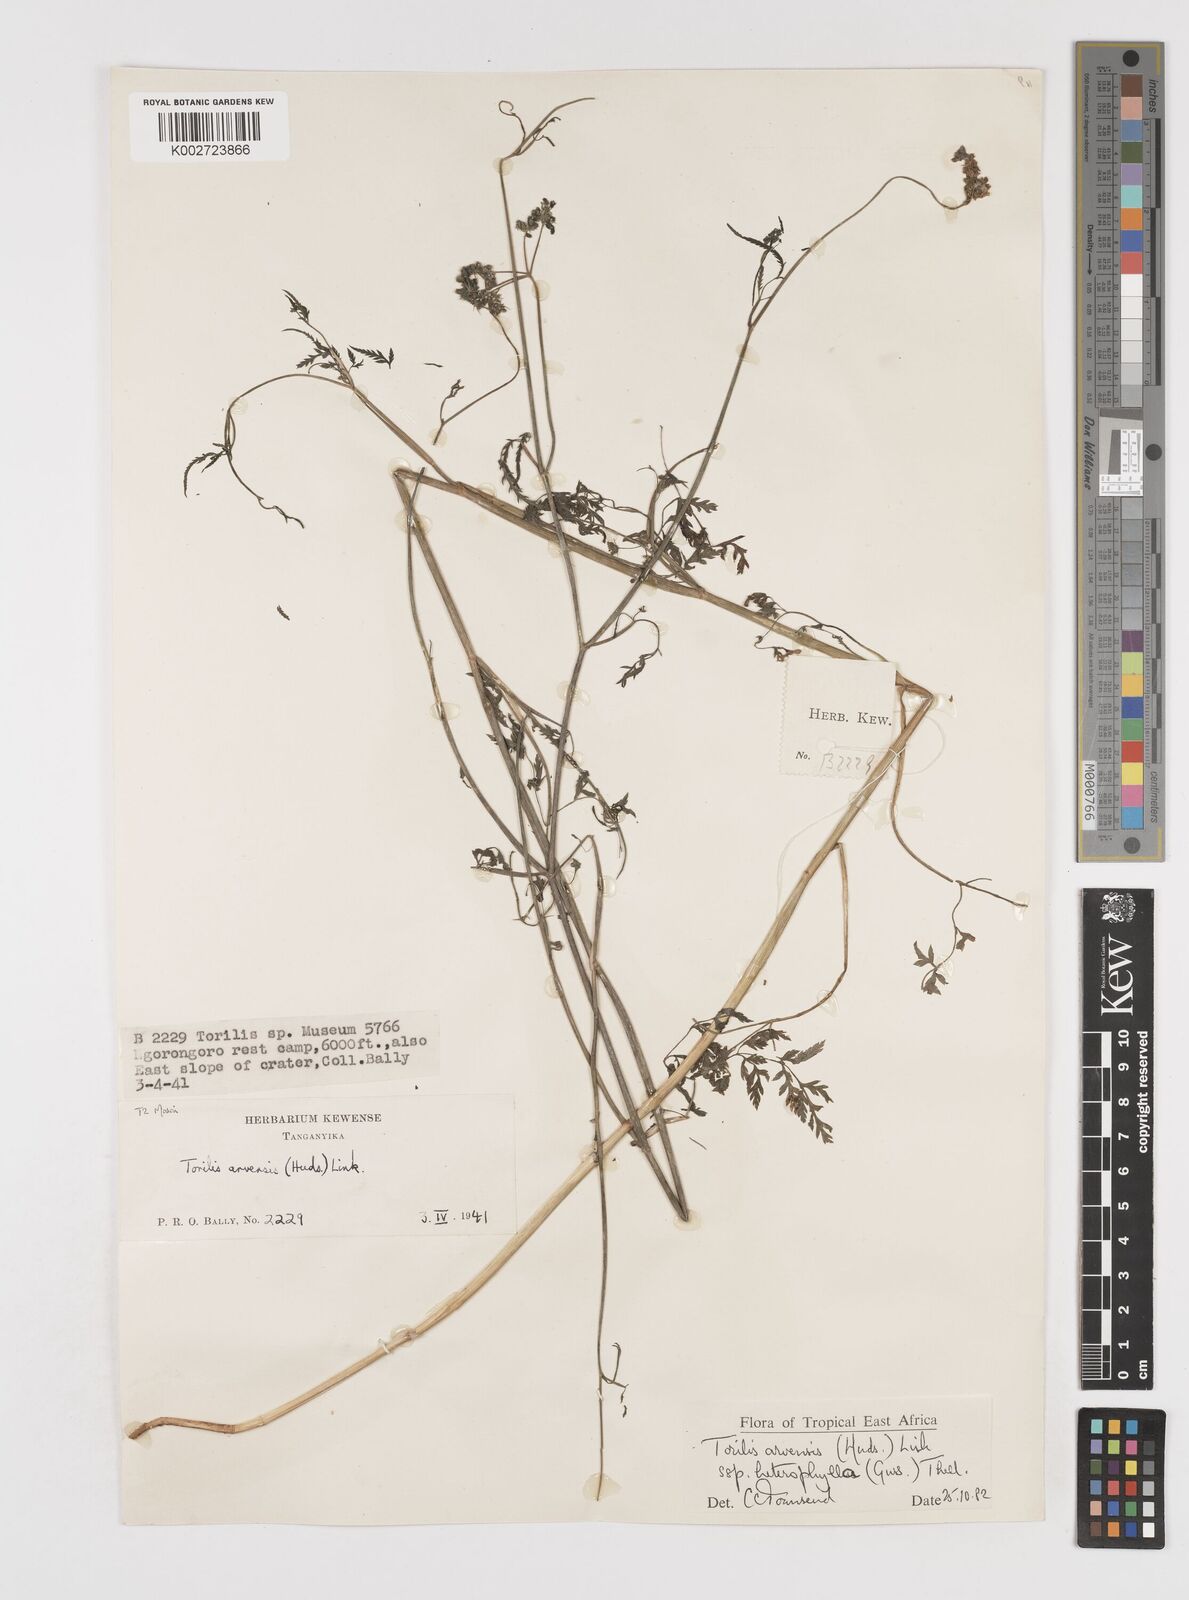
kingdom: Plantae
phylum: Tracheophyta
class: Magnoliopsida
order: Apiales
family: Apiaceae
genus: Torilis
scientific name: Torilis arvensis
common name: Spreading hedge-parsley
